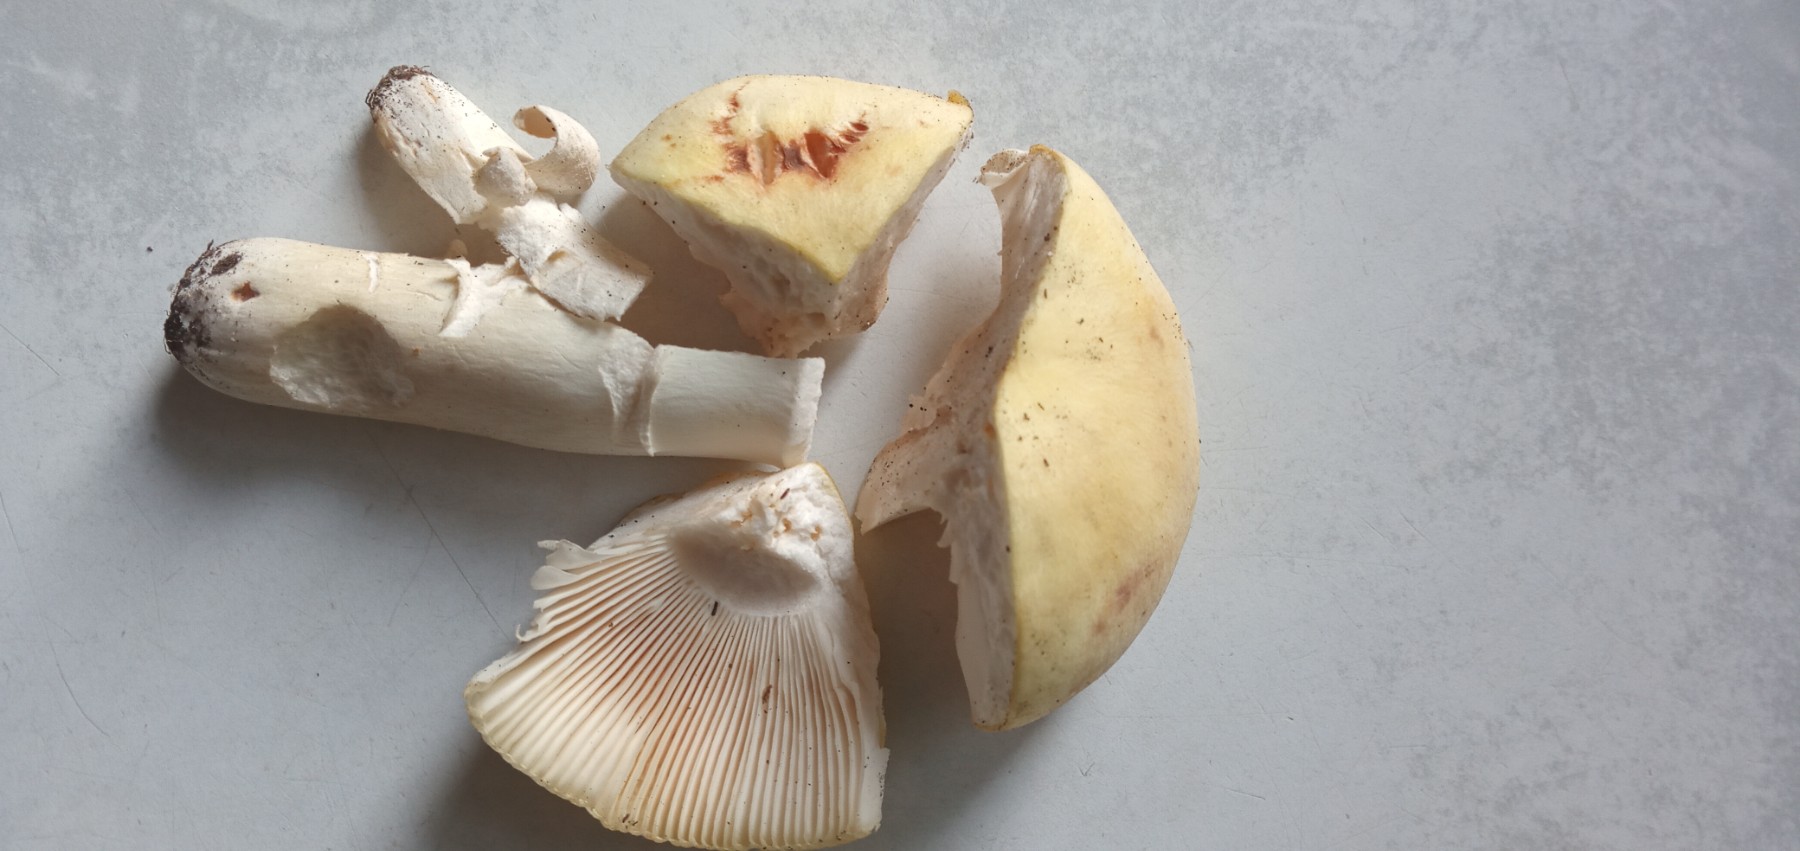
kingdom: Fungi
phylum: Basidiomycota
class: Agaricomycetes
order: Russulales
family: Russulaceae
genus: Russula
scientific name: Russula
